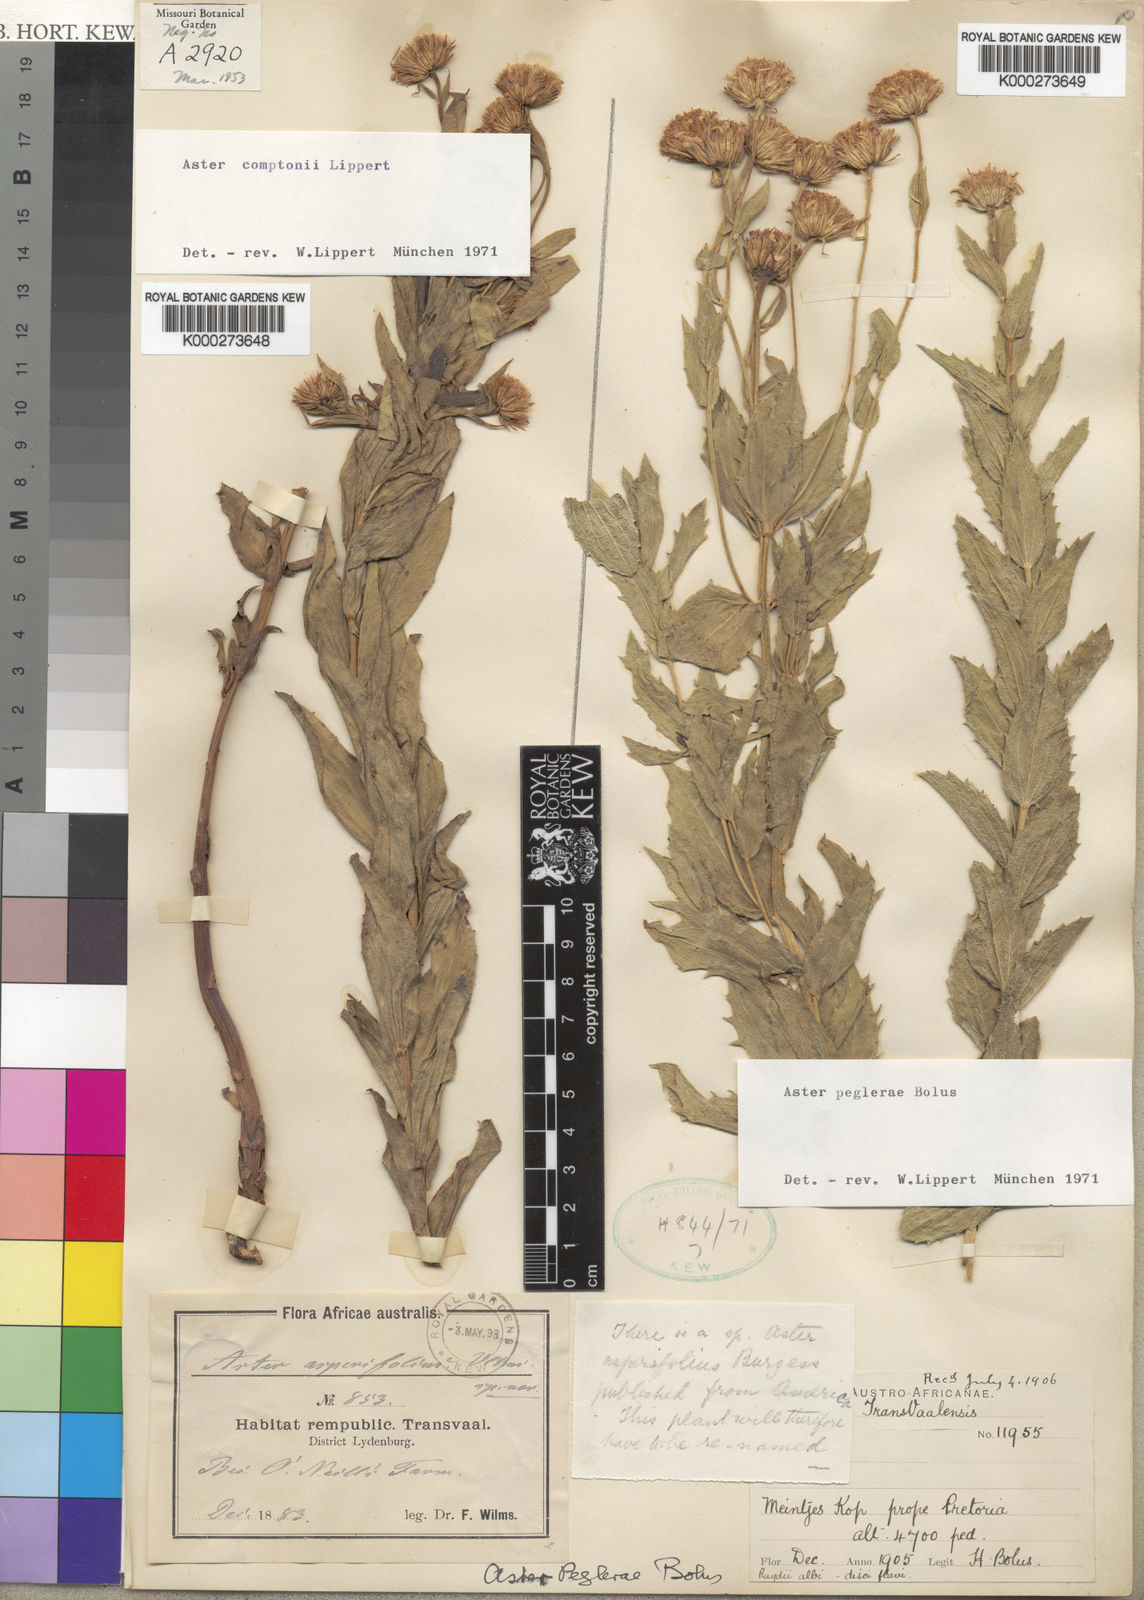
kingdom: Plantae
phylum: Tracheophyta
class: Magnoliopsida
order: Asterales
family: Asteraceae
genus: Afroaster
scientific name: Afroaster peglerae
